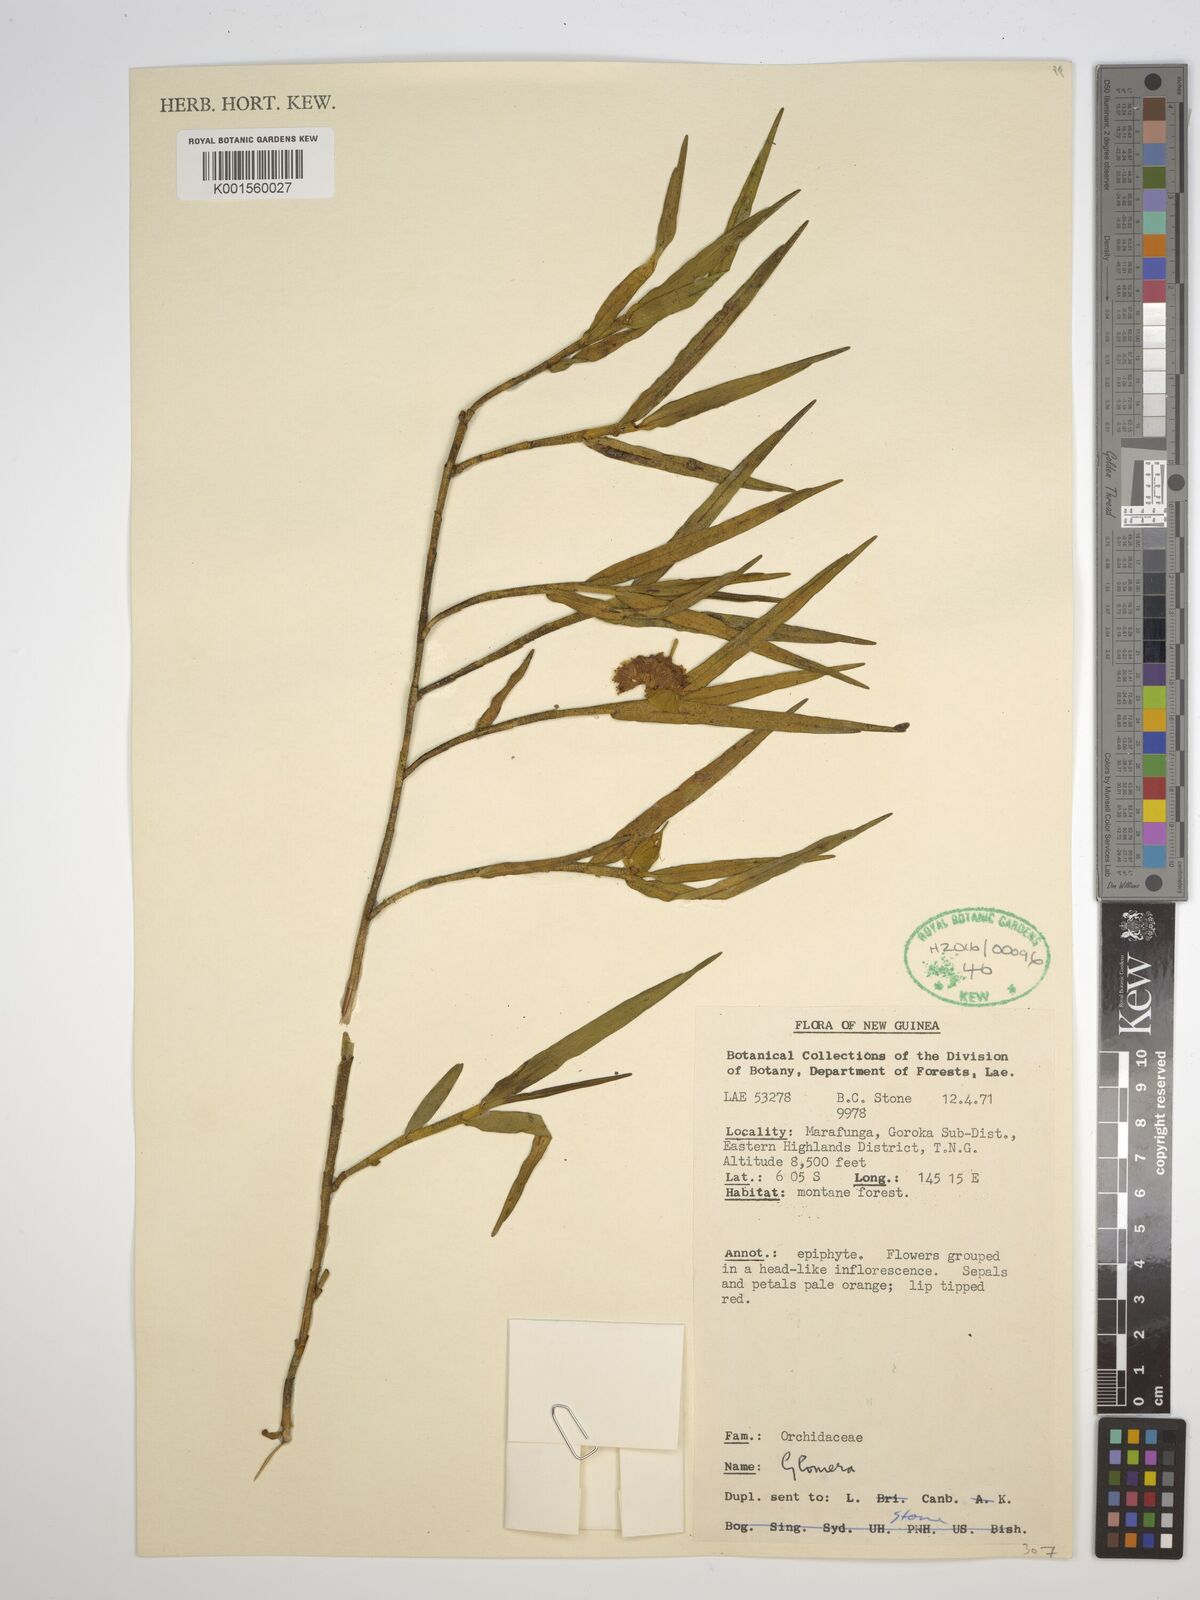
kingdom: Plantae
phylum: Tracheophyta
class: Liliopsida
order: Asparagales
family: Orchidaceae
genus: Glomera
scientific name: Glomera
